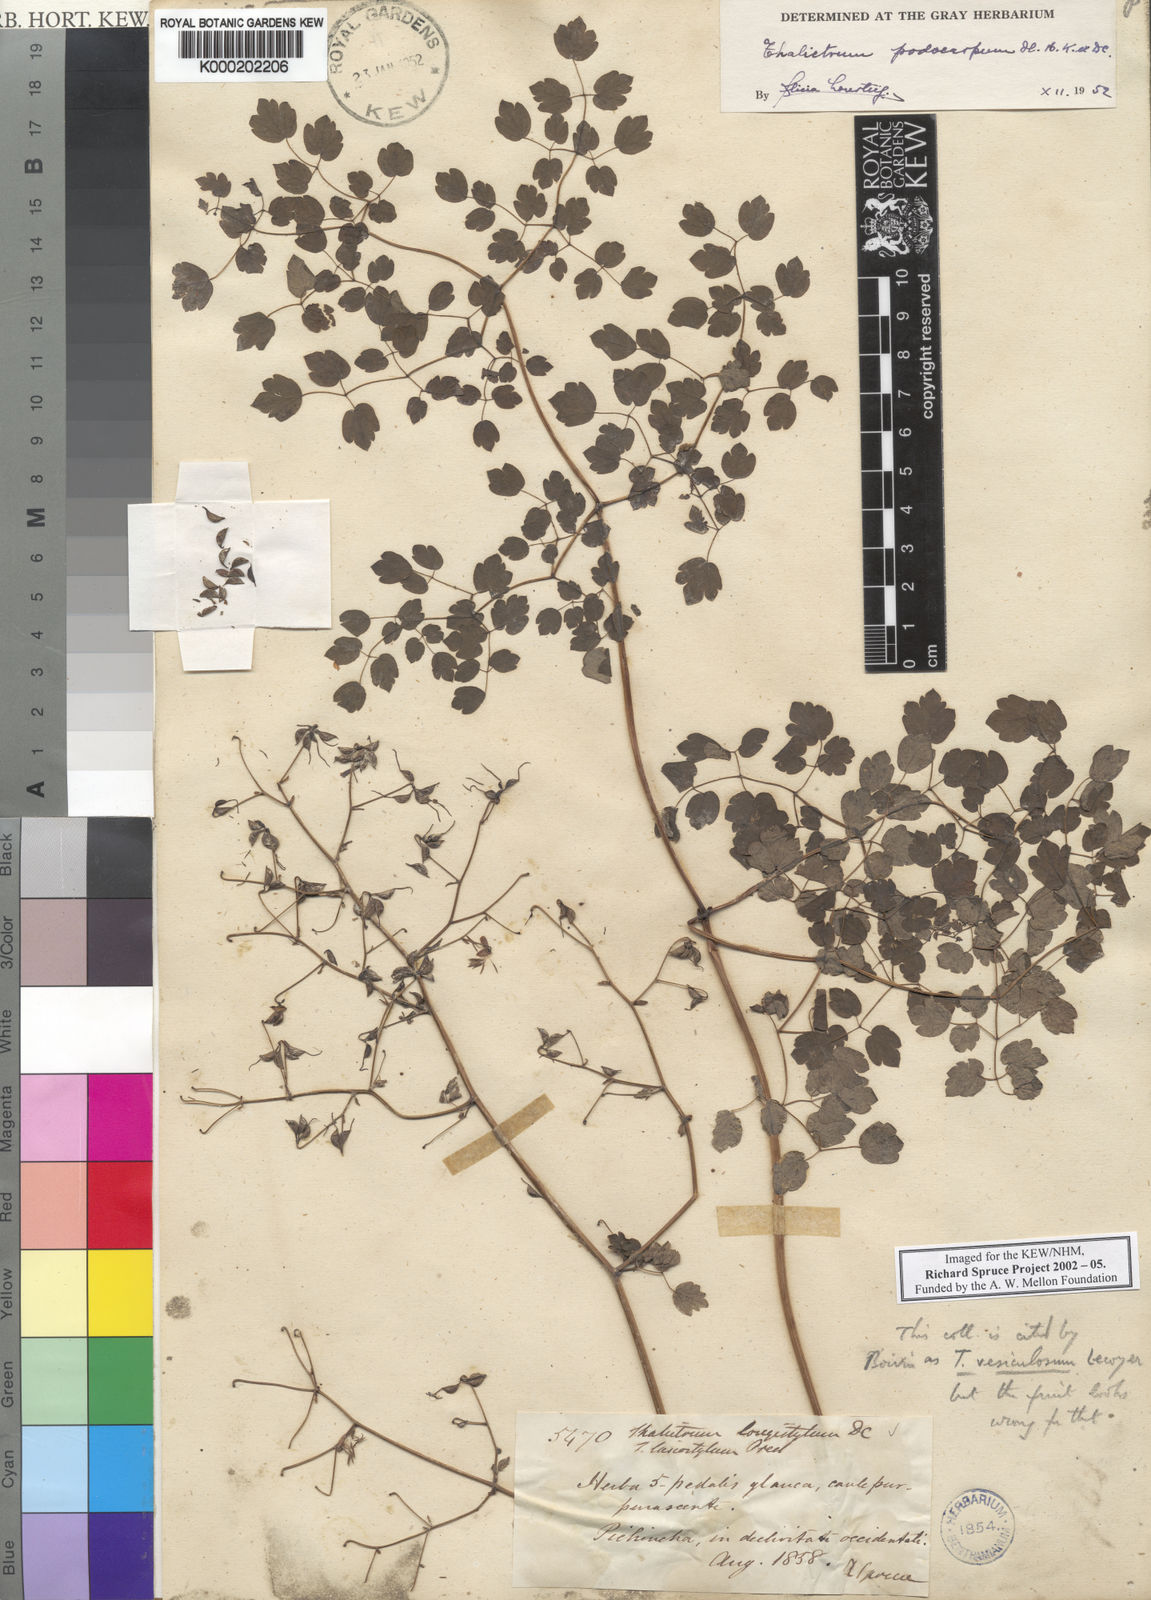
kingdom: Plantae
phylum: Tracheophyta
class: Magnoliopsida
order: Ranunculales
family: Ranunculaceae
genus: Thalictrum
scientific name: Thalictrum podocarpum
